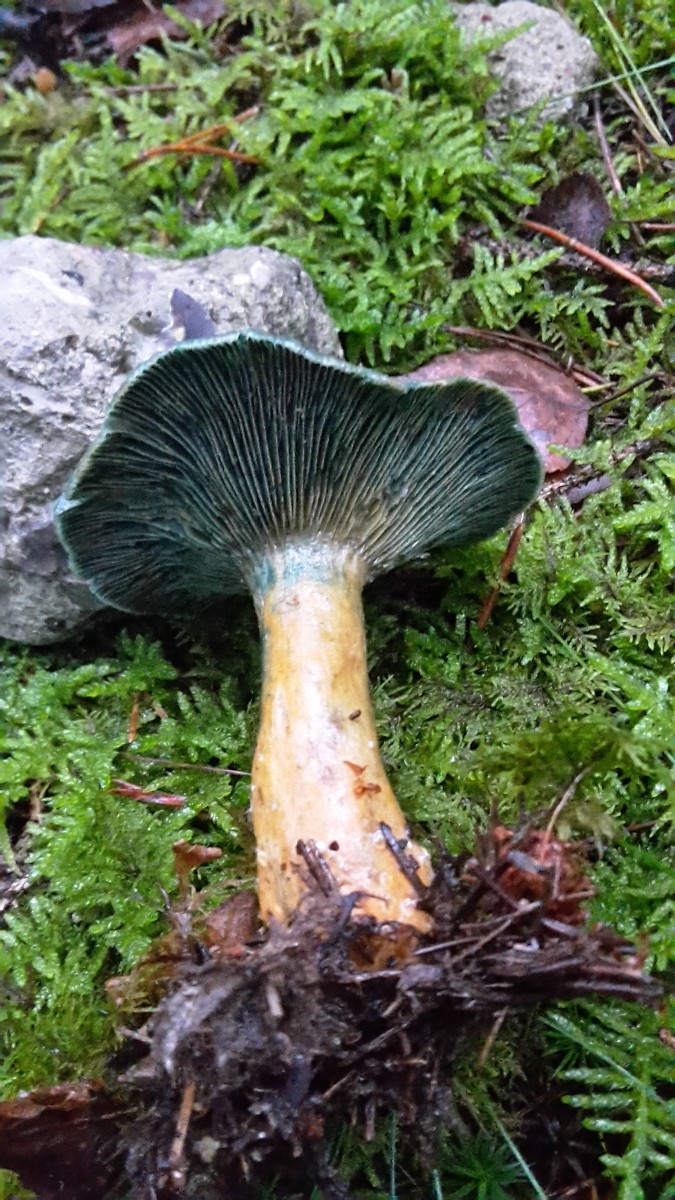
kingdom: Fungi
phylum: Basidiomycota
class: Agaricomycetes
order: Russulales
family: Russulaceae
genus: Lactarius
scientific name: Lactarius deterrimus
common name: gran-mælkehat
